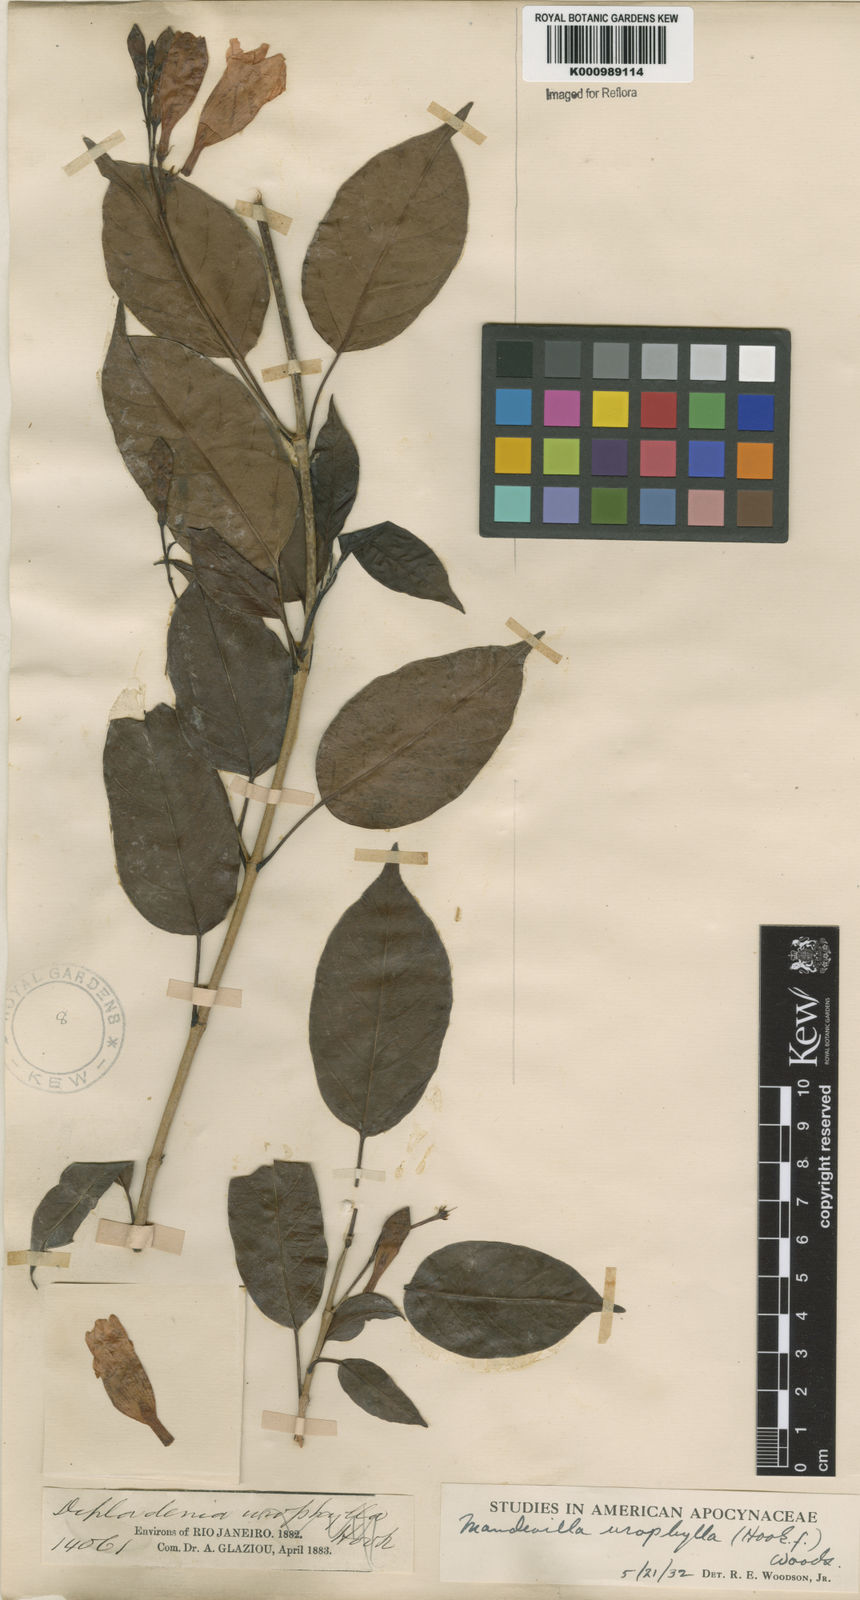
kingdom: Plantae
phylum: Tracheophyta
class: Magnoliopsida
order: Gentianales
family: Apocynaceae
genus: Mandevilla
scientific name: Mandevilla urophylla
